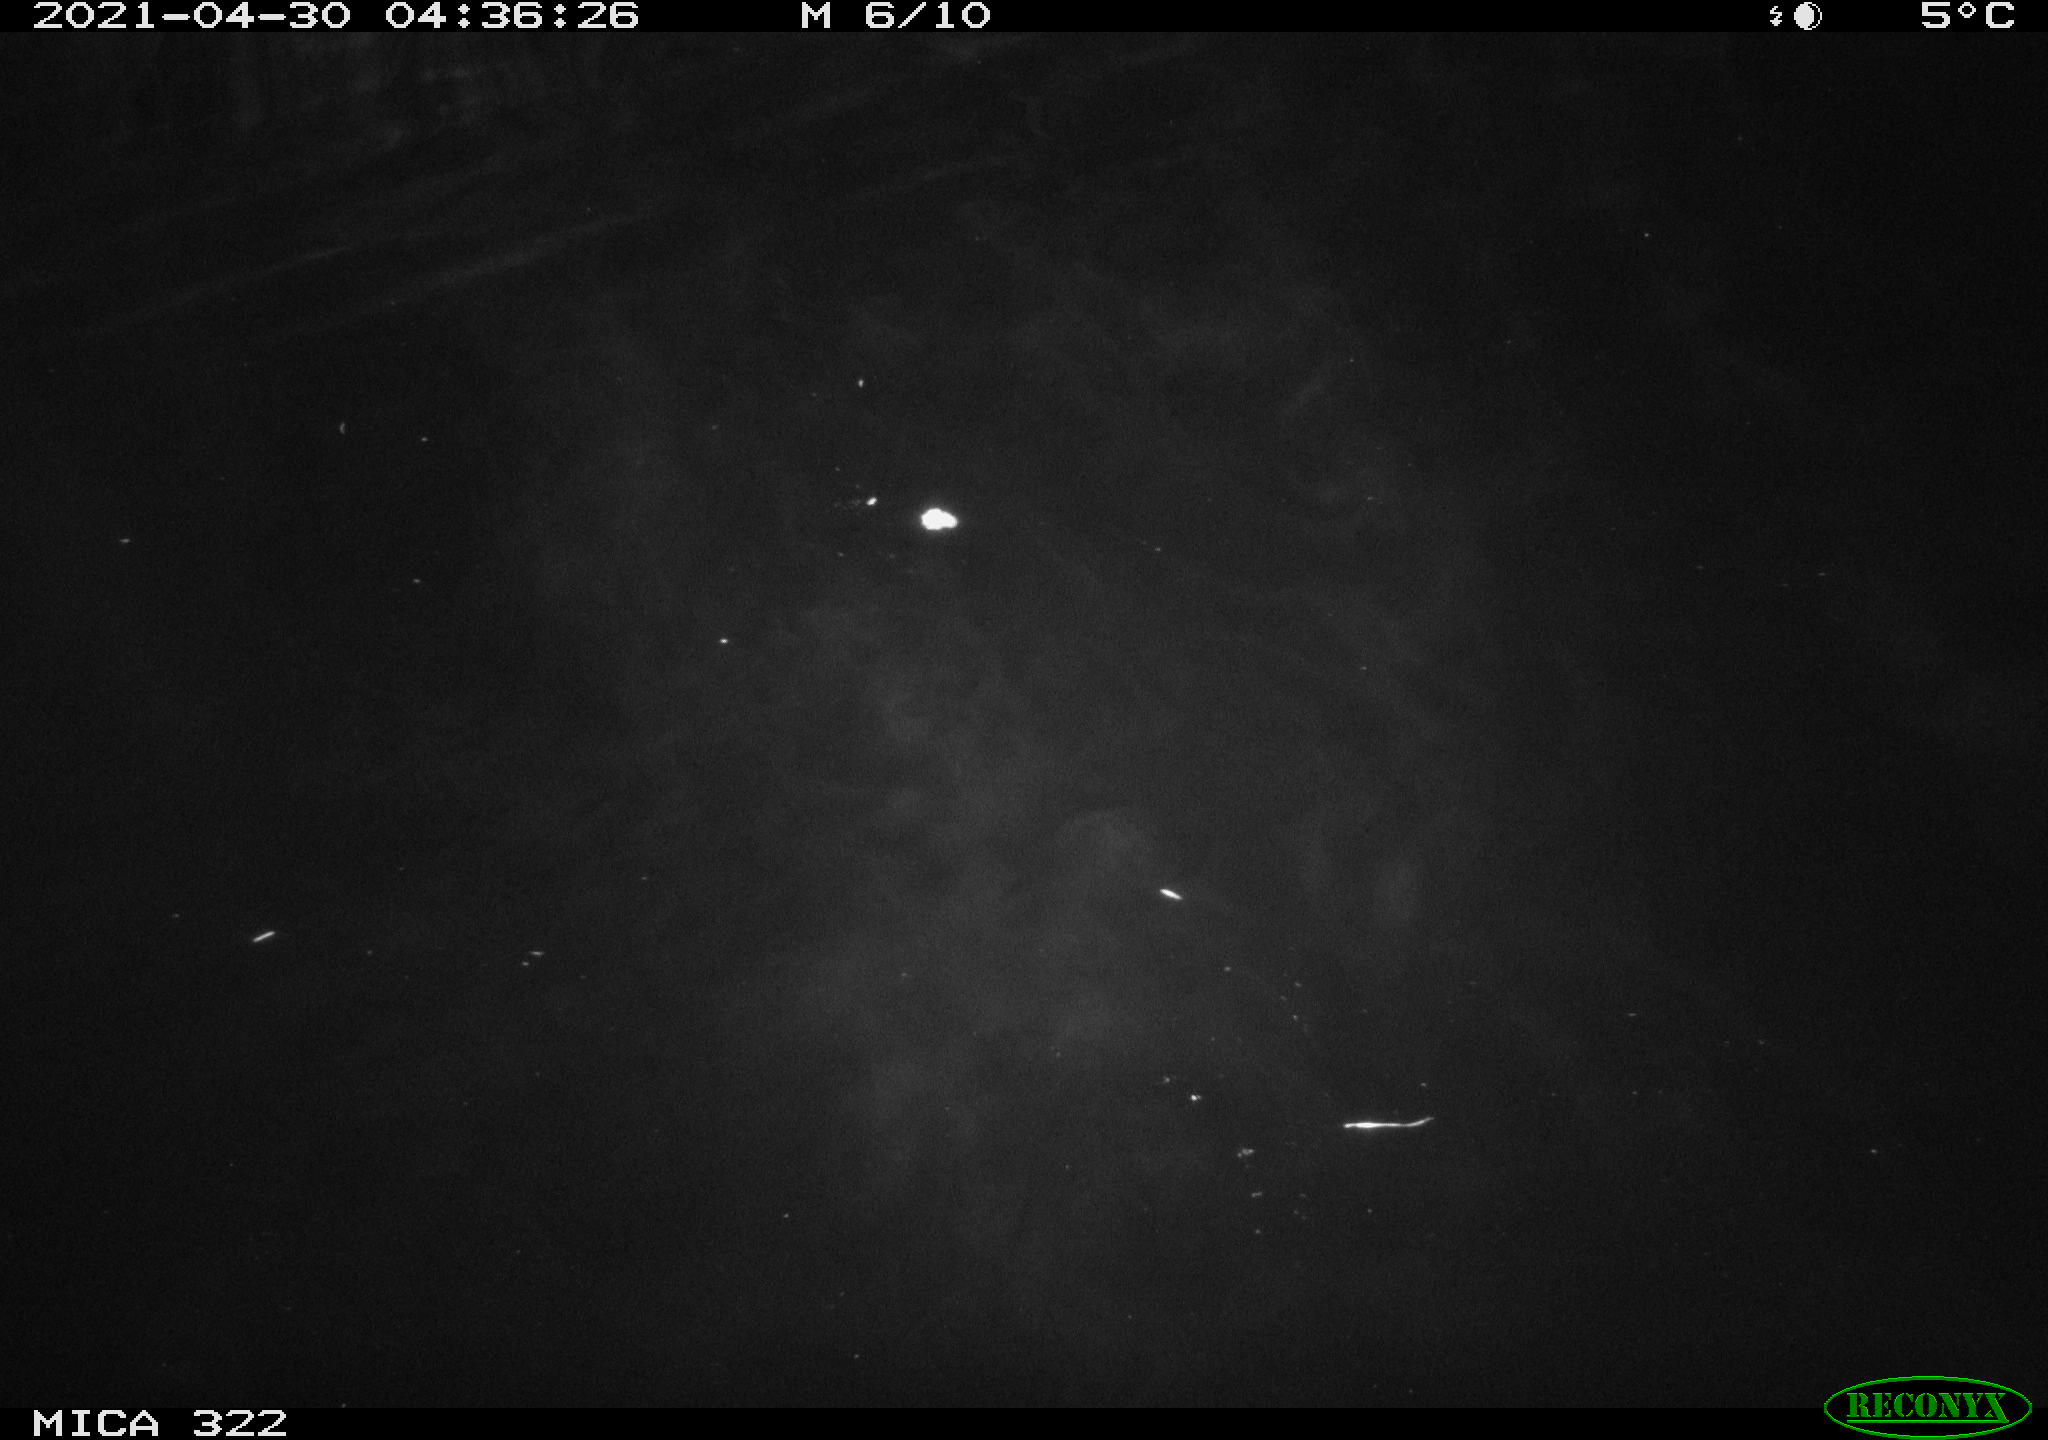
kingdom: Animalia
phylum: Chordata
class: Aves
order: Anseriformes
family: Anatidae
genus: Mareca
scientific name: Mareca strepera
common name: Gadwall
